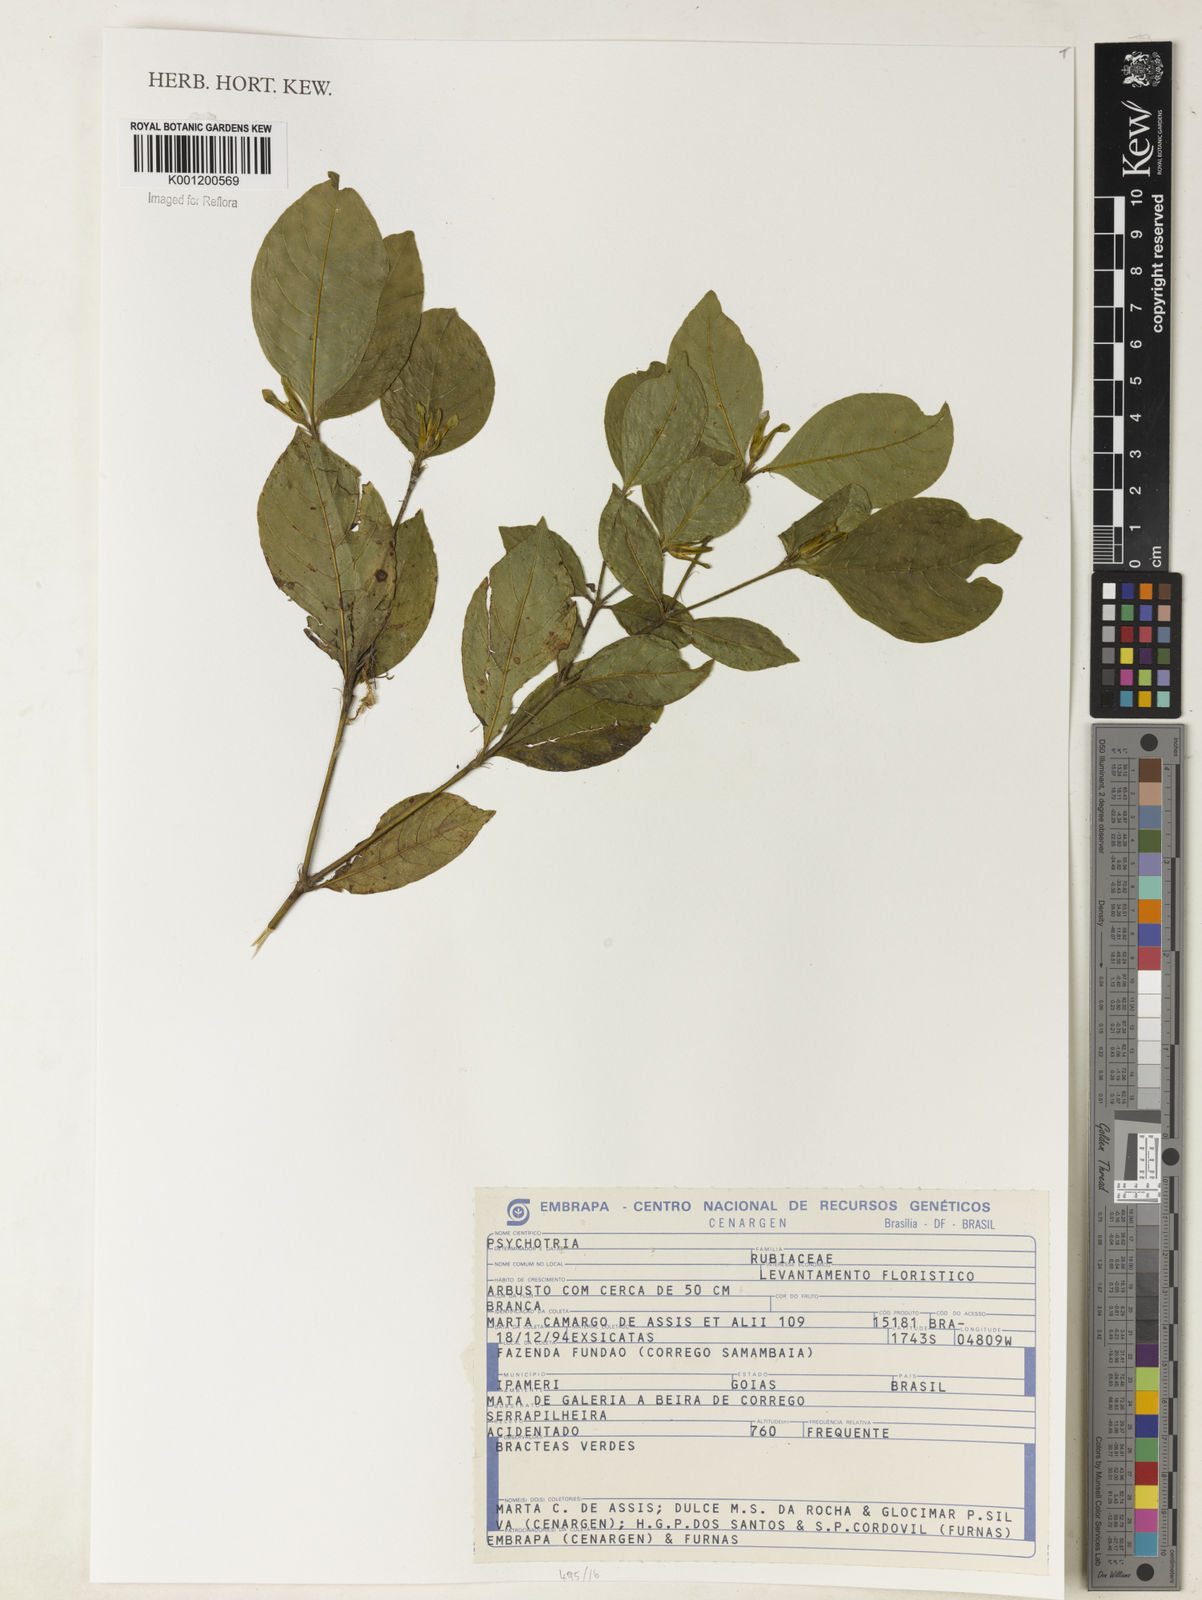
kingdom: Plantae
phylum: Tracheophyta
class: Magnoliopsida
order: Gentianales
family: Rubiaceae
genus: Psychotria
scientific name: Psychotria
